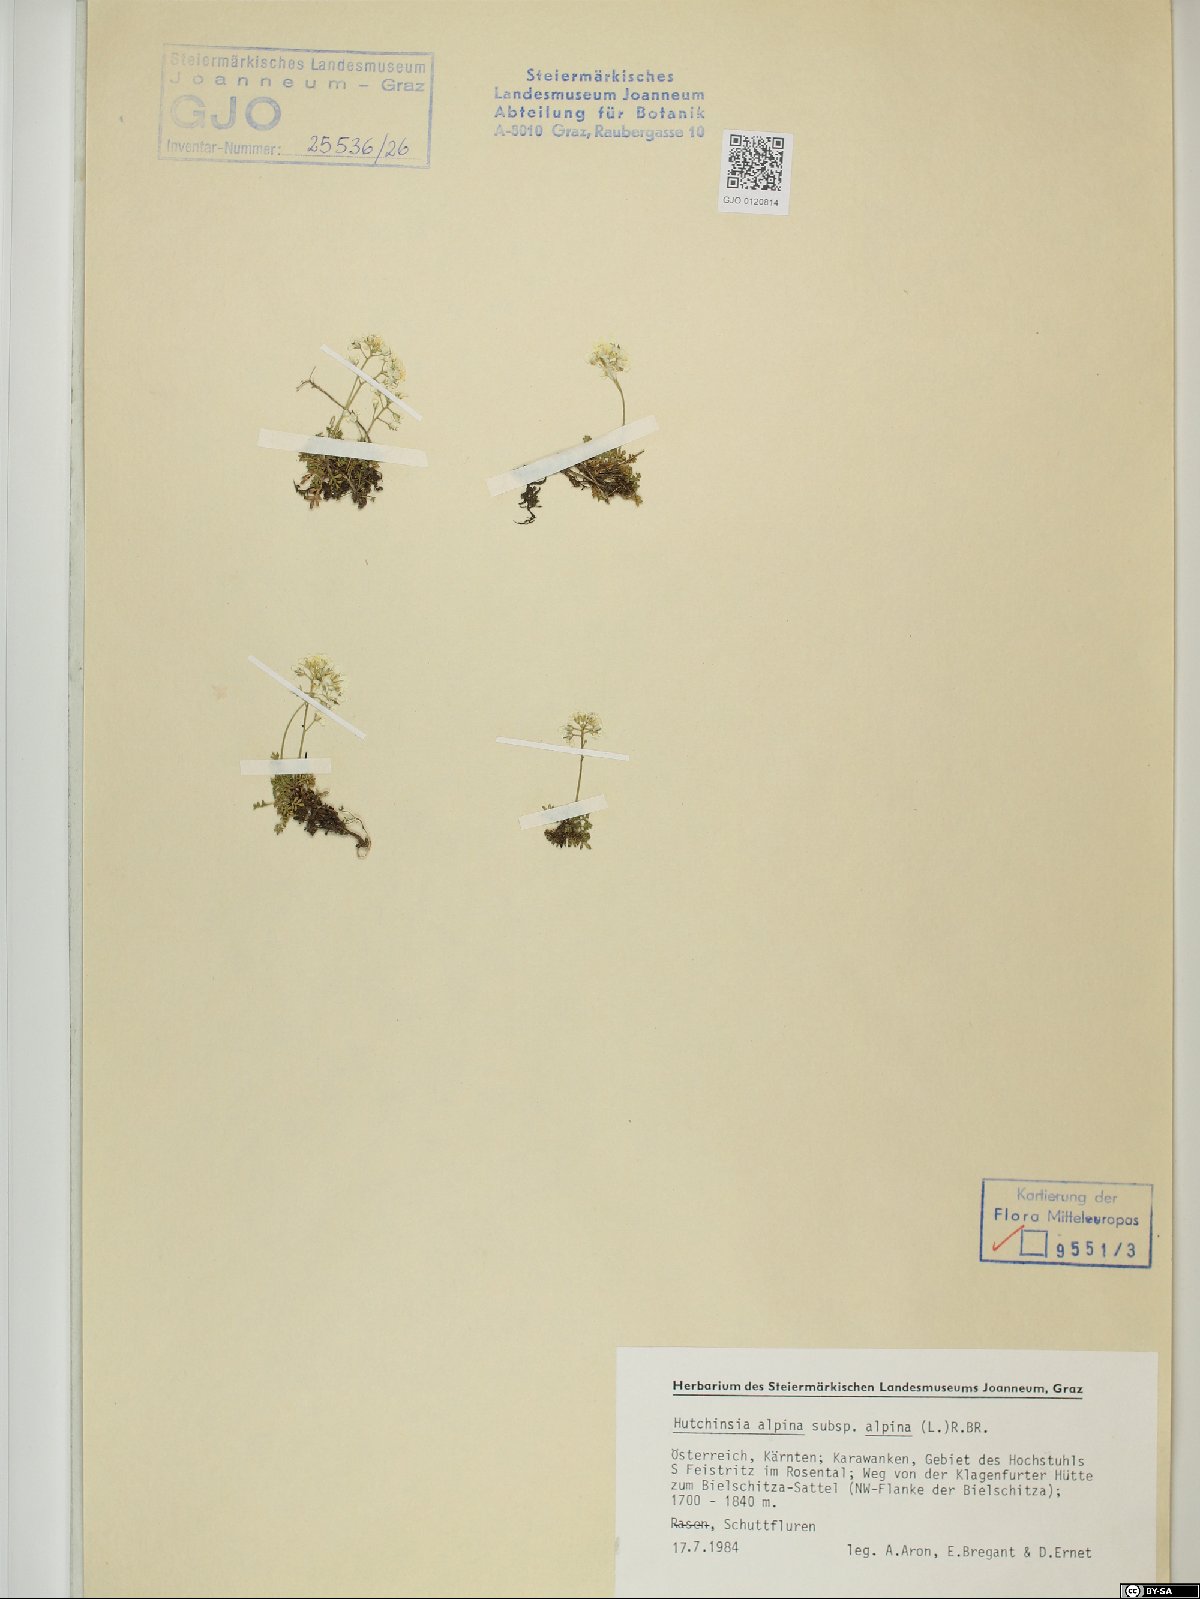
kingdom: Plantae
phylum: Tracheophyta
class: Magnoliopsida
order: Brassicales
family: Brassicaceae
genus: Hornungia
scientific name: Hornungia alpina
